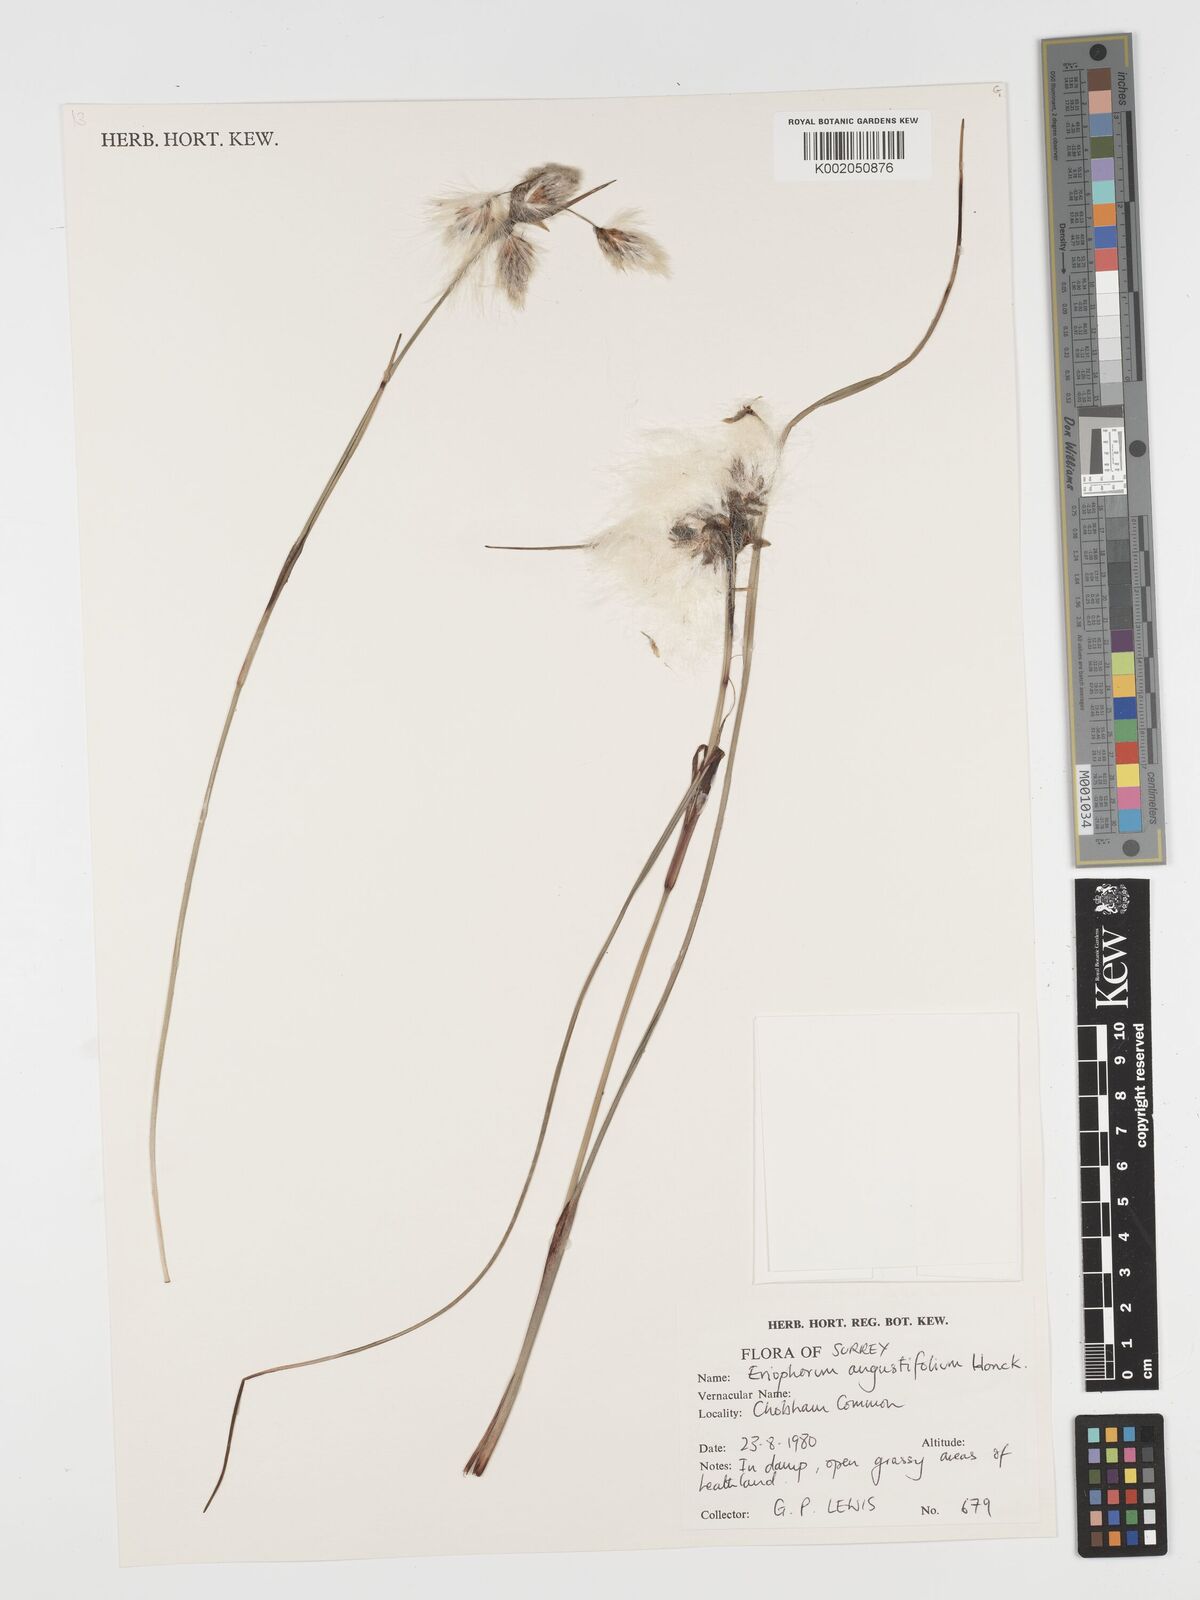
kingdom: Plantae
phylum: Tracheophyta
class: Liliopsida
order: Poales
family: Cyperaceae
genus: Eriophorum
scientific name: Eriophorum angustifolium
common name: Common cottongrass
